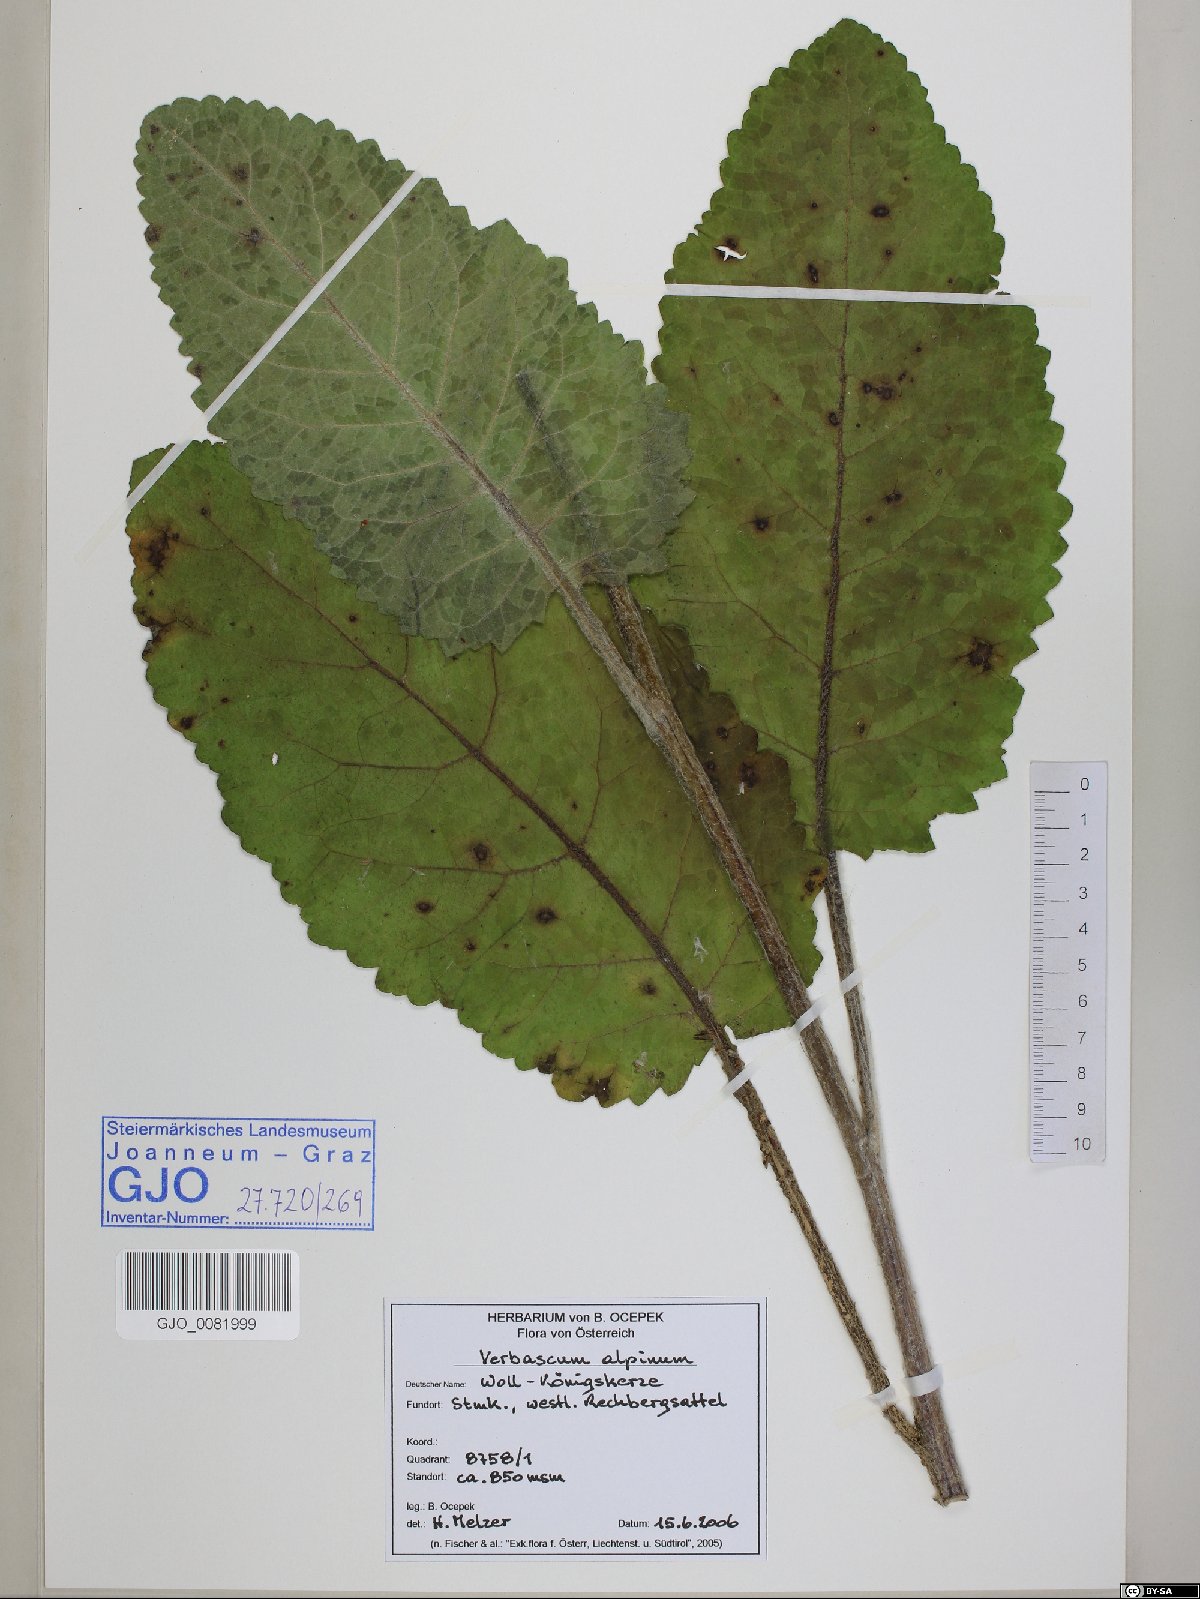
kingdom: Plantae
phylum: Tracheophyta
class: Magnoliopsida
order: Lamiales
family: Scrophulariaceae
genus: Verbascum
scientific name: Verbascum alpinum
